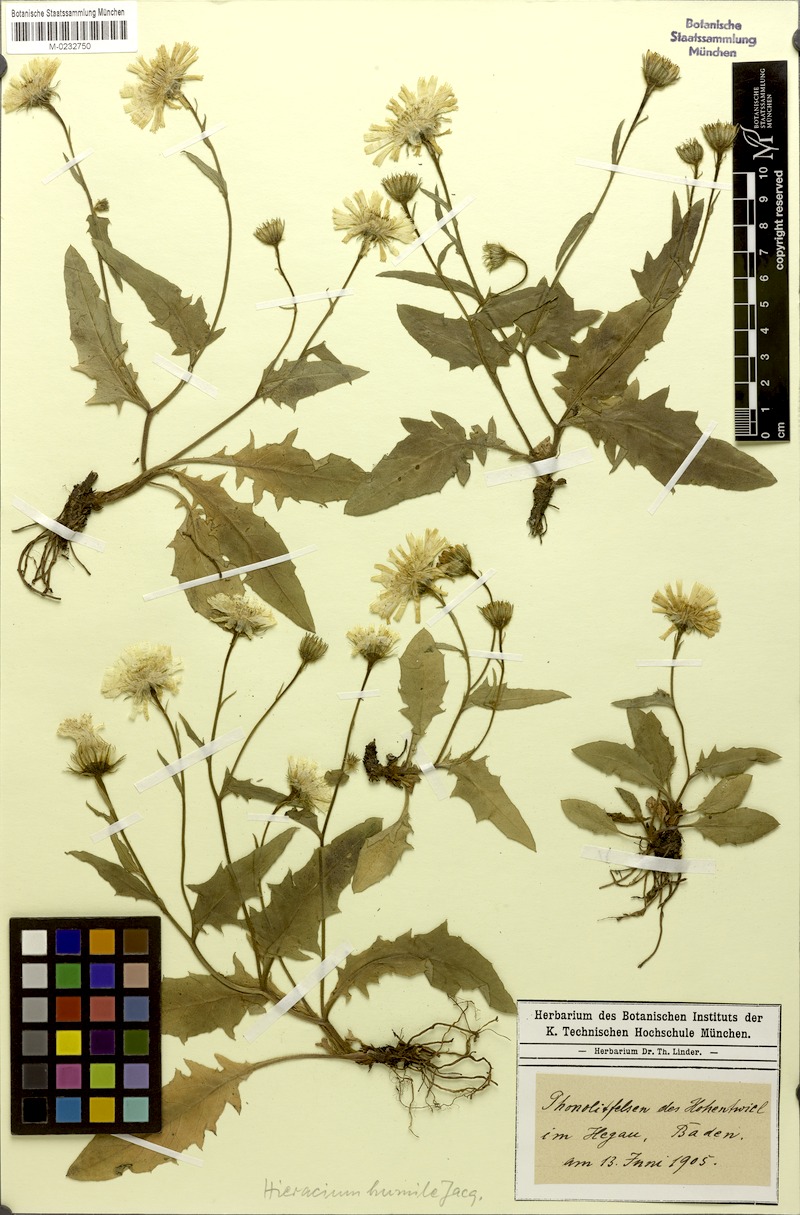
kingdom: Plantae
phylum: Tracheophyta
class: Magnoliopsida
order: Asterales
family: Asteraceae
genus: Hieracium
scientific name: Hieracium humile
